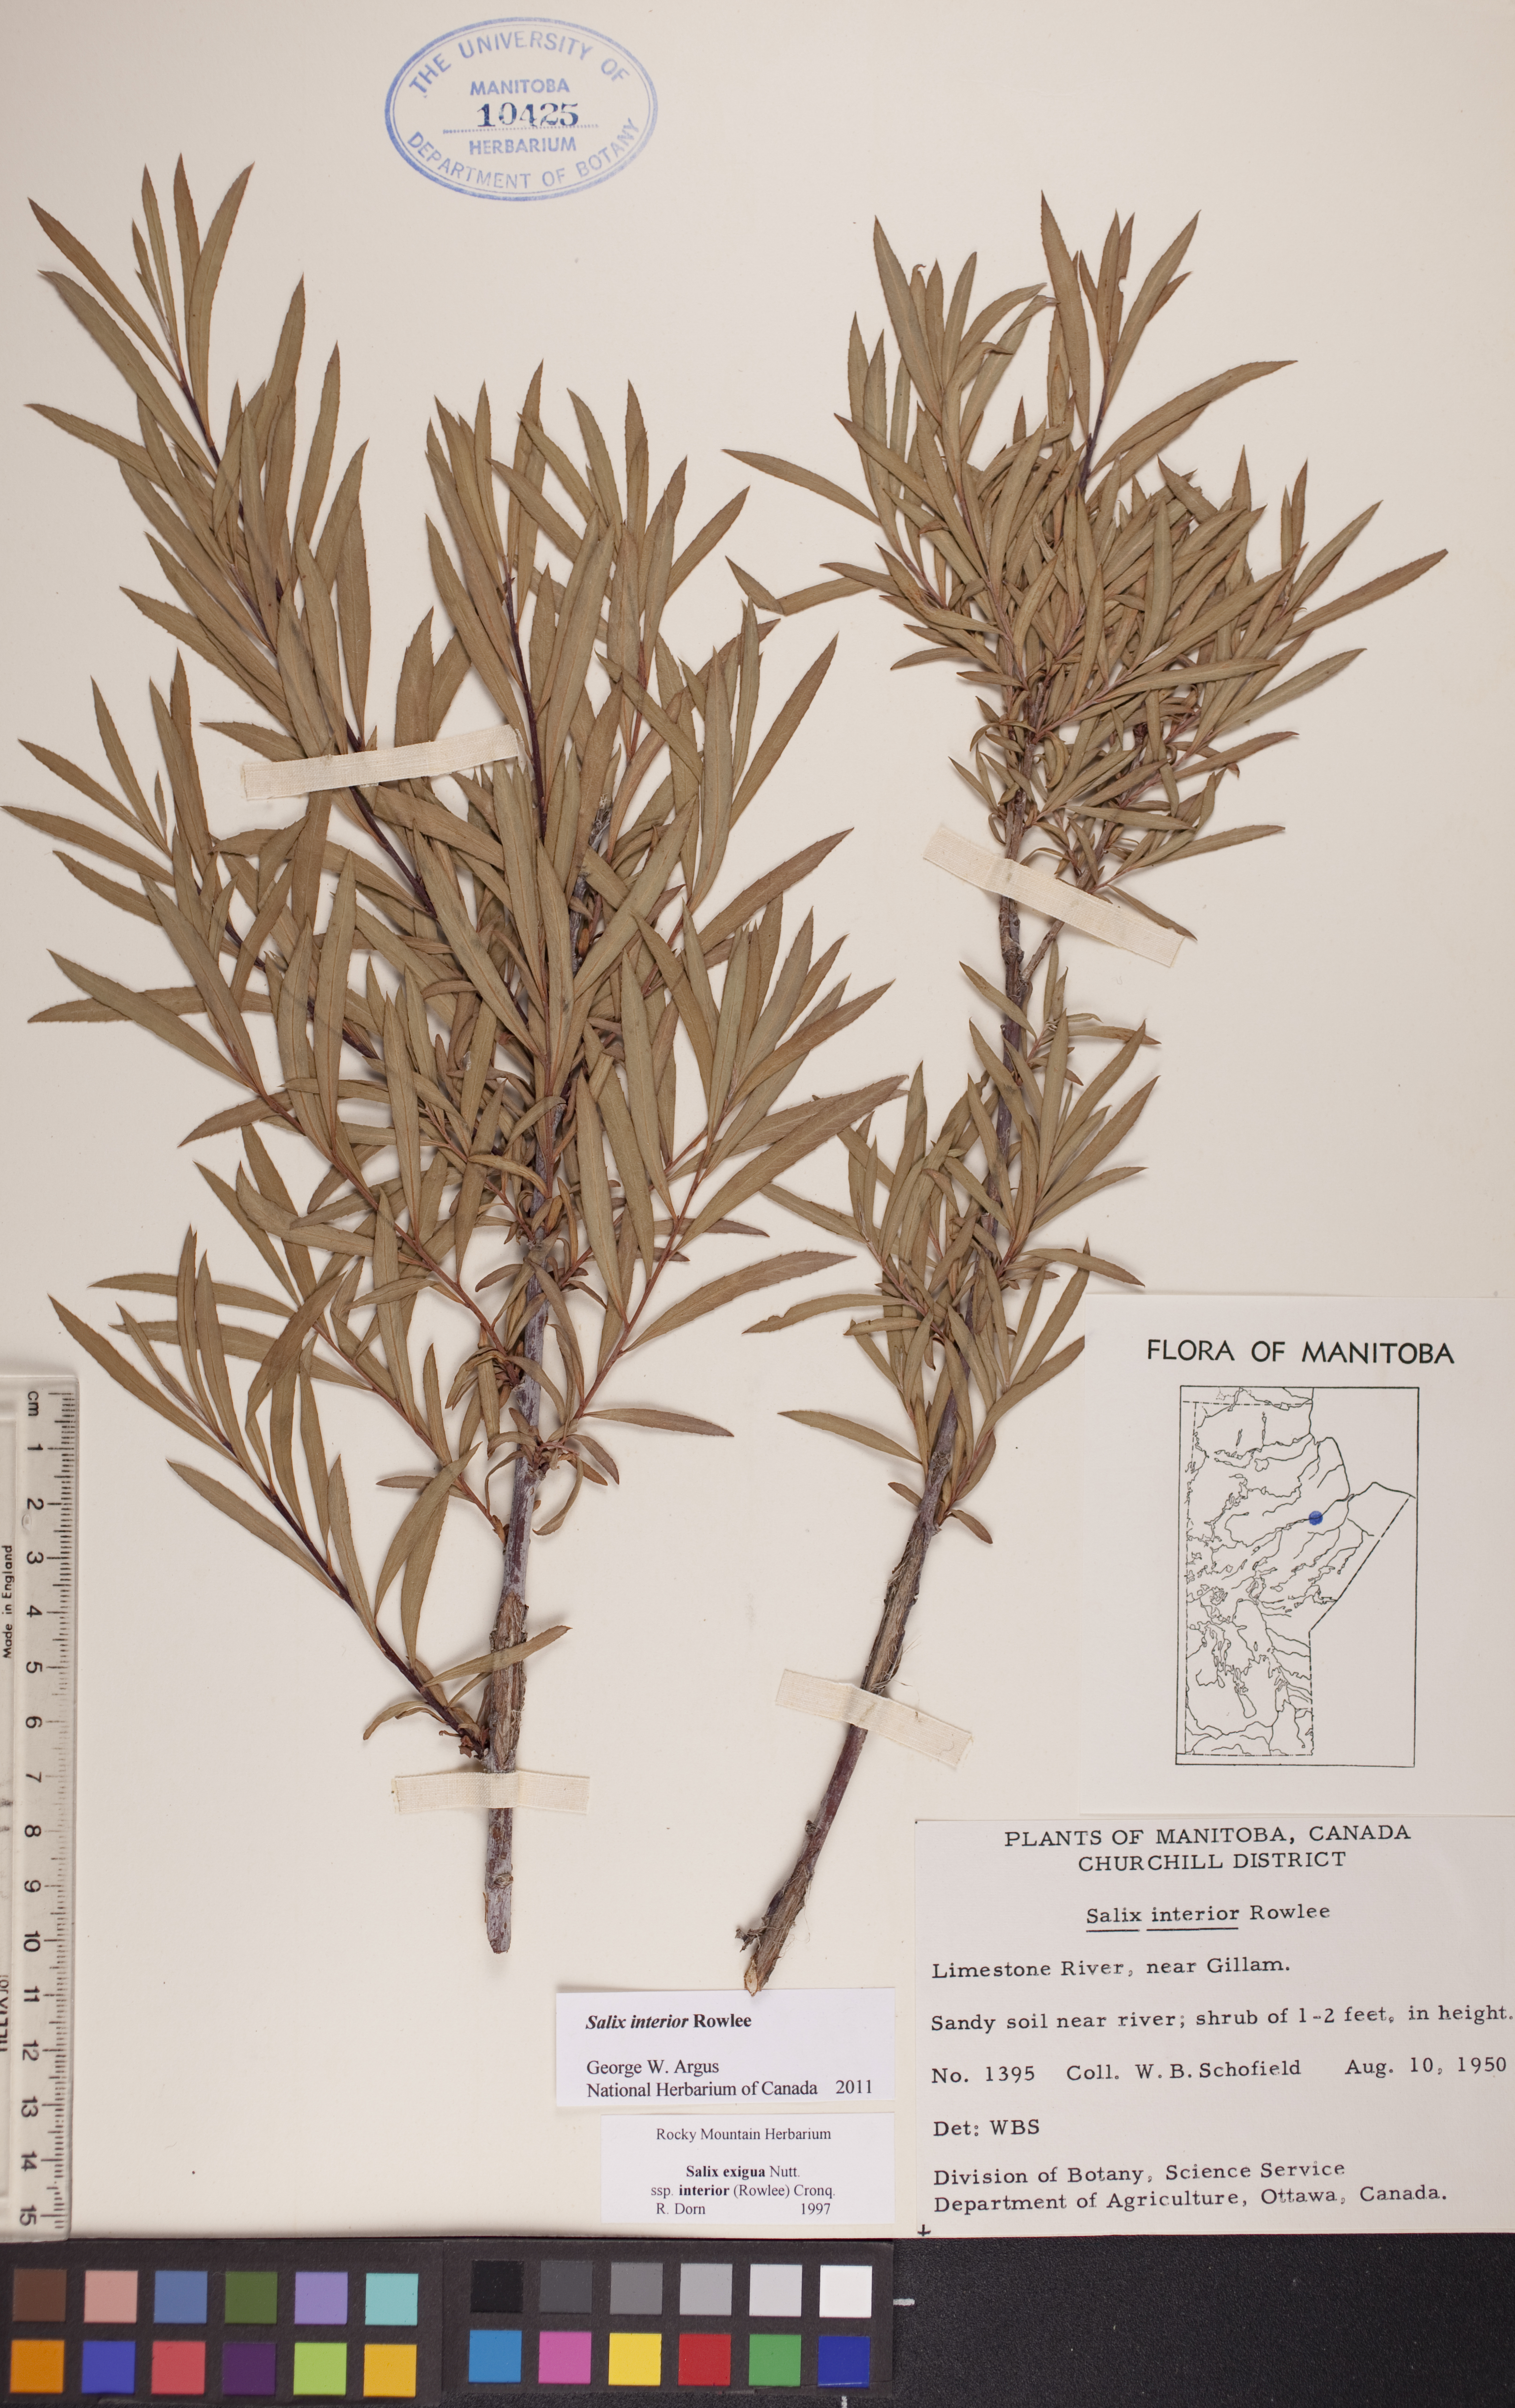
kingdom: Plantae
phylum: Tracheophyta
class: Magnoliopsida
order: Malpighiales
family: Salicaceae
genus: Salix
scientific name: Salix interior
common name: Sandbar willow
